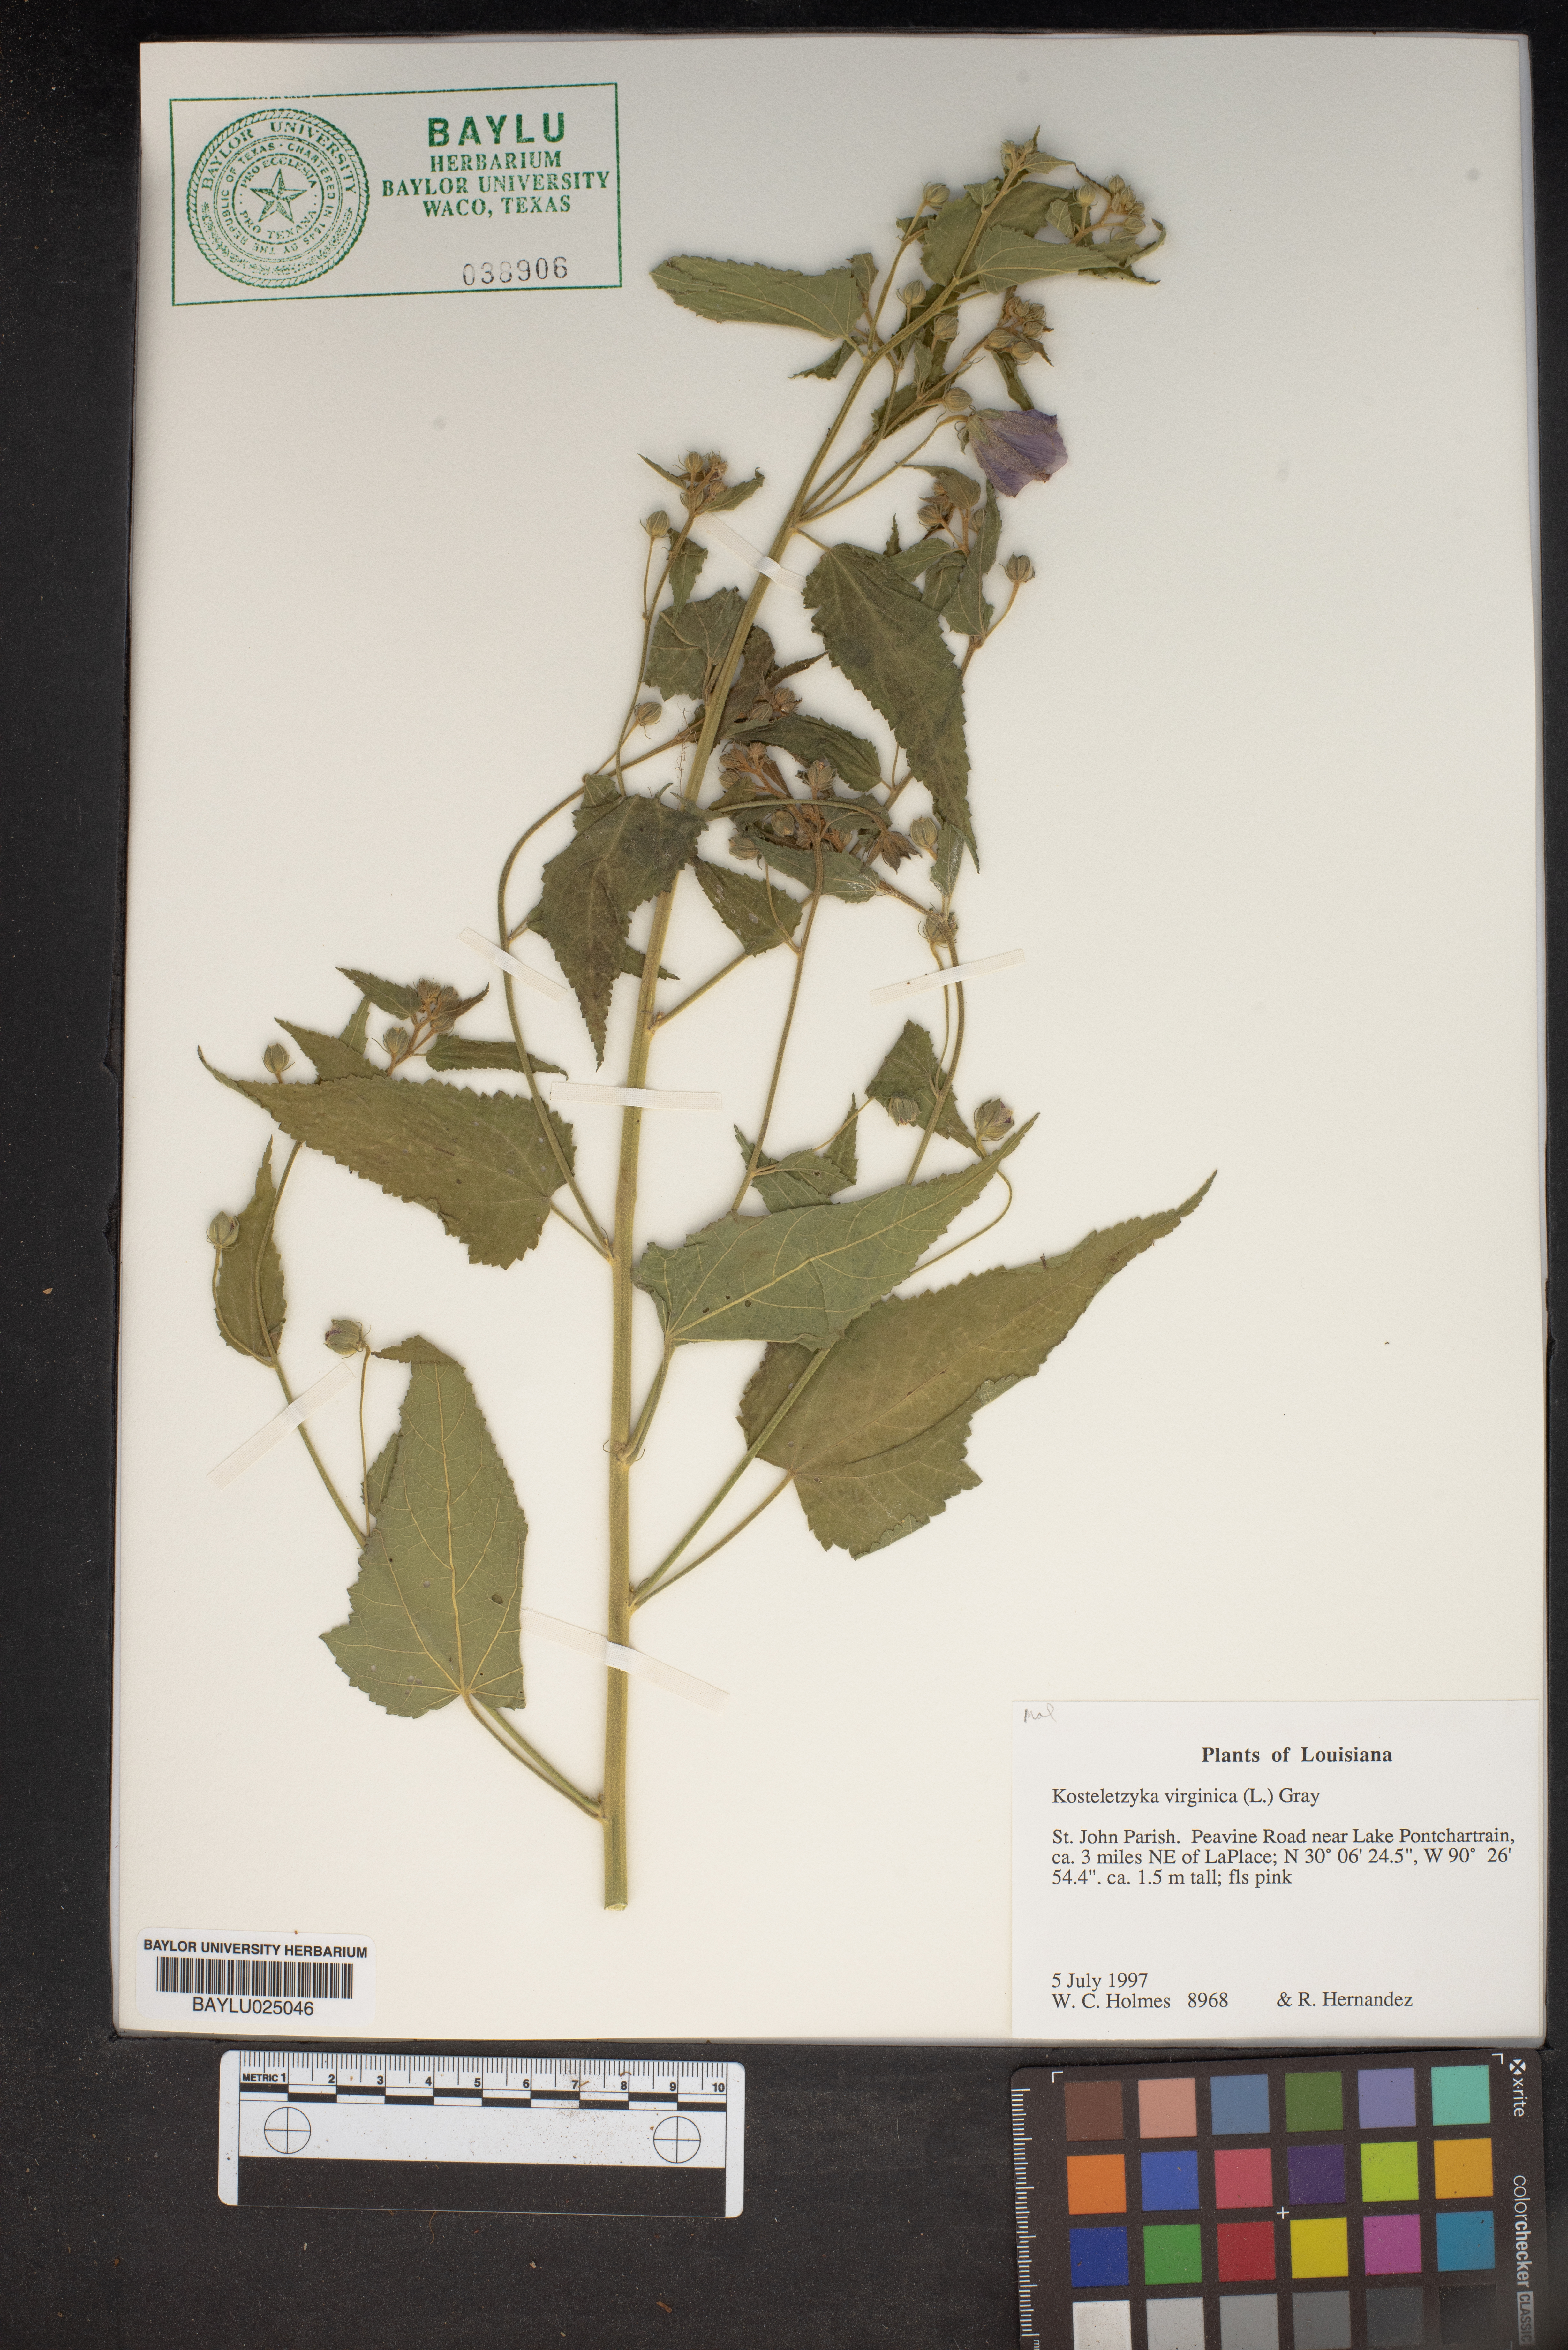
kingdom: Plantae
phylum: Tracheophyta
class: Magnoliopsida
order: Malvales
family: Malvaceae
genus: Kosteletzkya
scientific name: Kosteletzkya pentacarpos
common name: Virginia saltmarsh mallow
